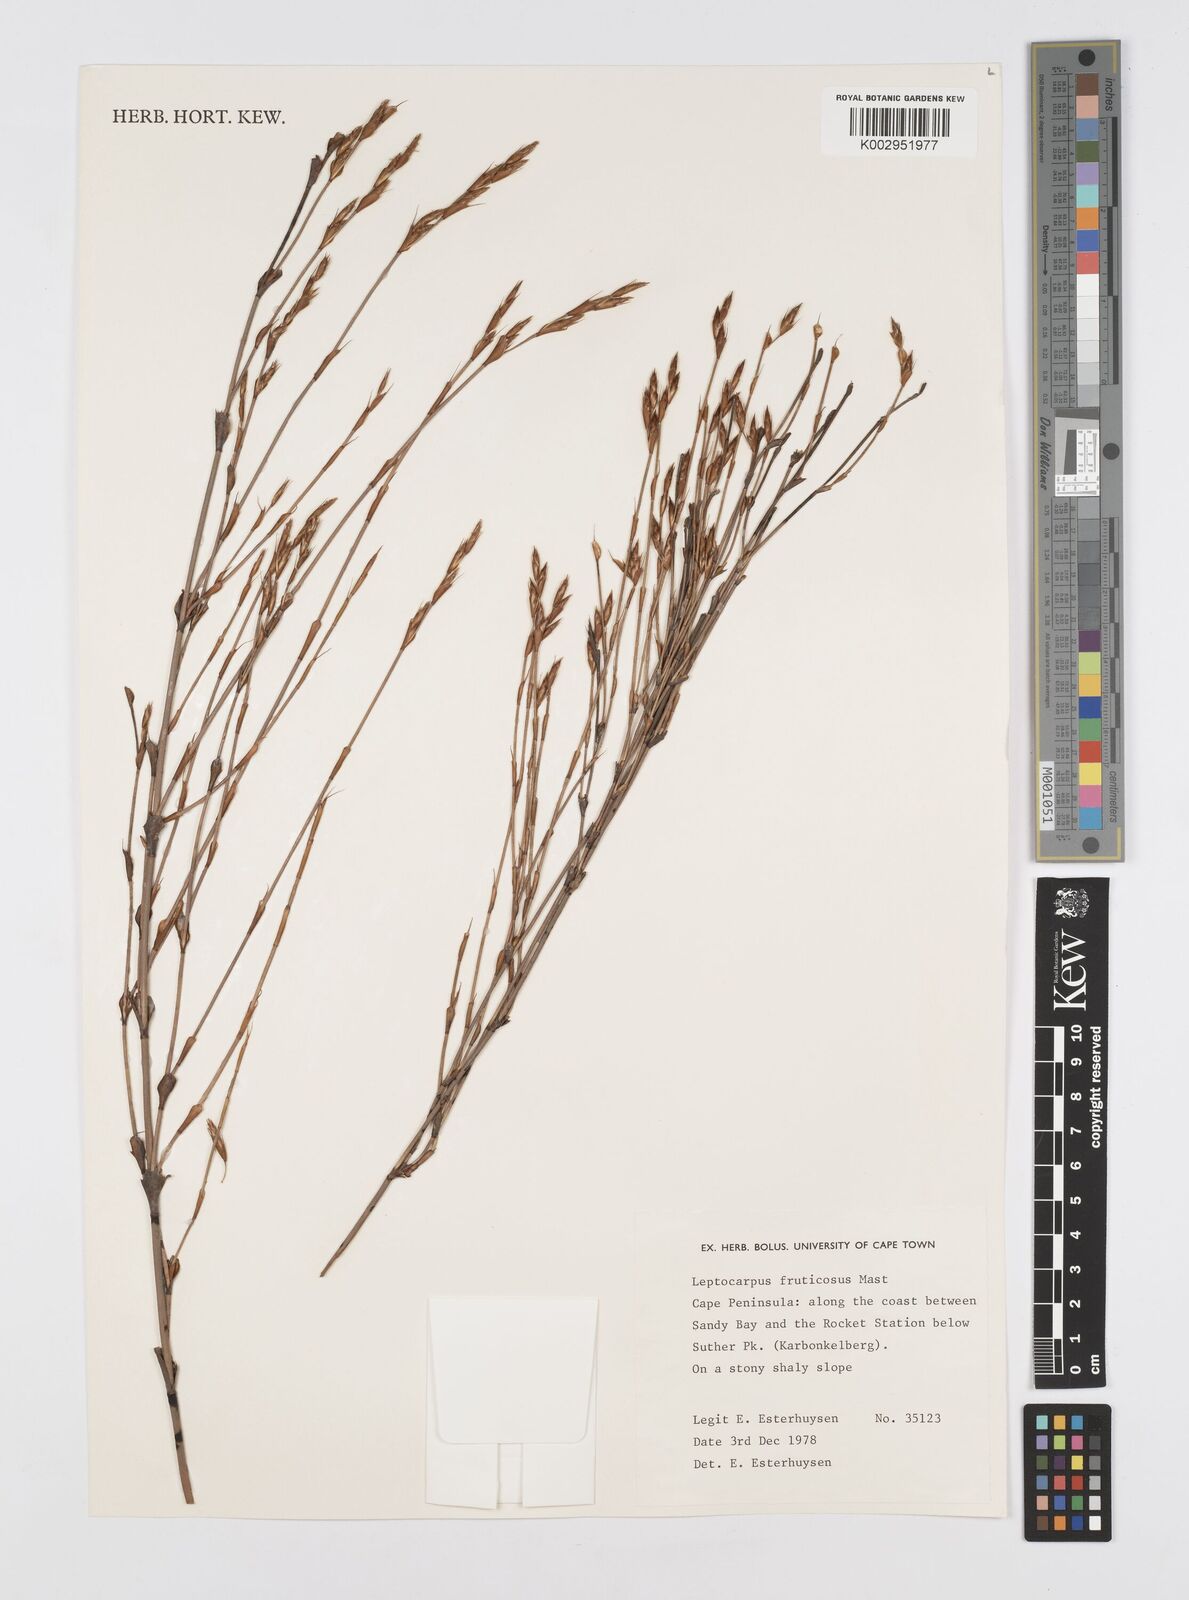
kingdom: Plantae
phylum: Tracheophyta
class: Liliopsida
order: Poales
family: Restionaceae
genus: Rhodocoma
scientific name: Rhodocoma fruticosa
